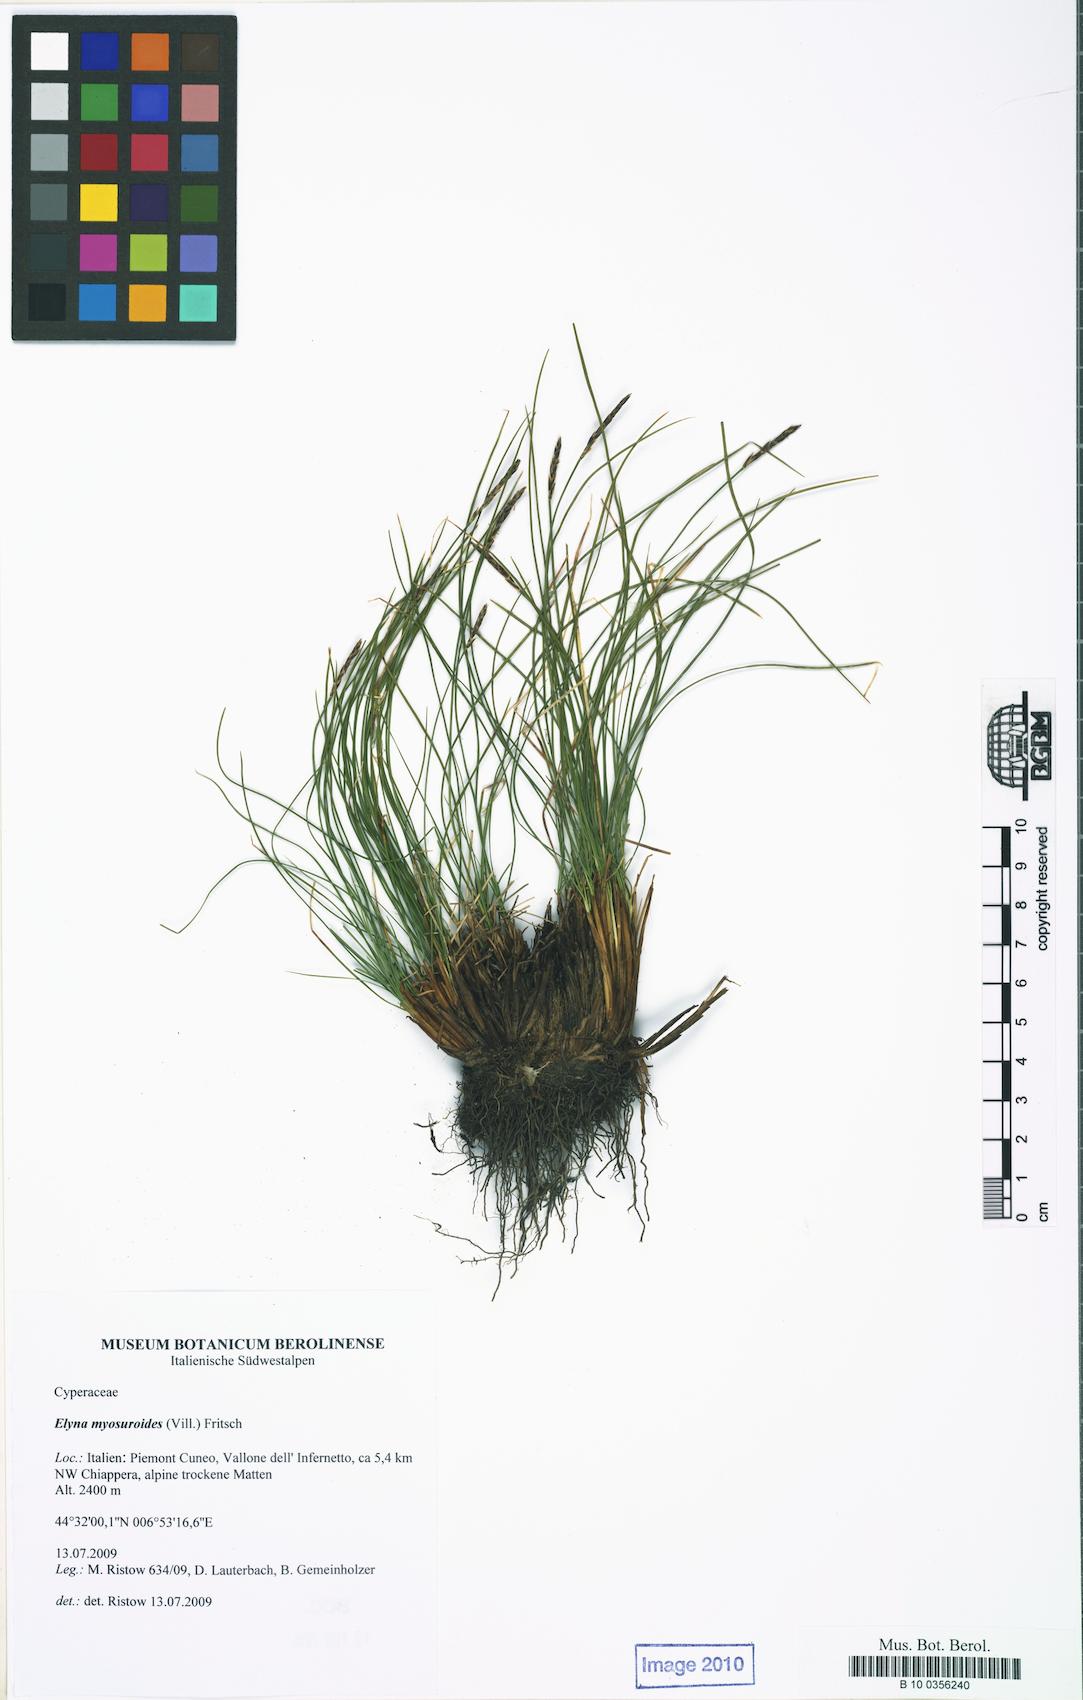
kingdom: Plantae
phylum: Tracheophyta
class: Liliopsida
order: Poales
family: Cyperaceae
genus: Carex
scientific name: Carex myosuroides
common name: Bellard's bog sedge
